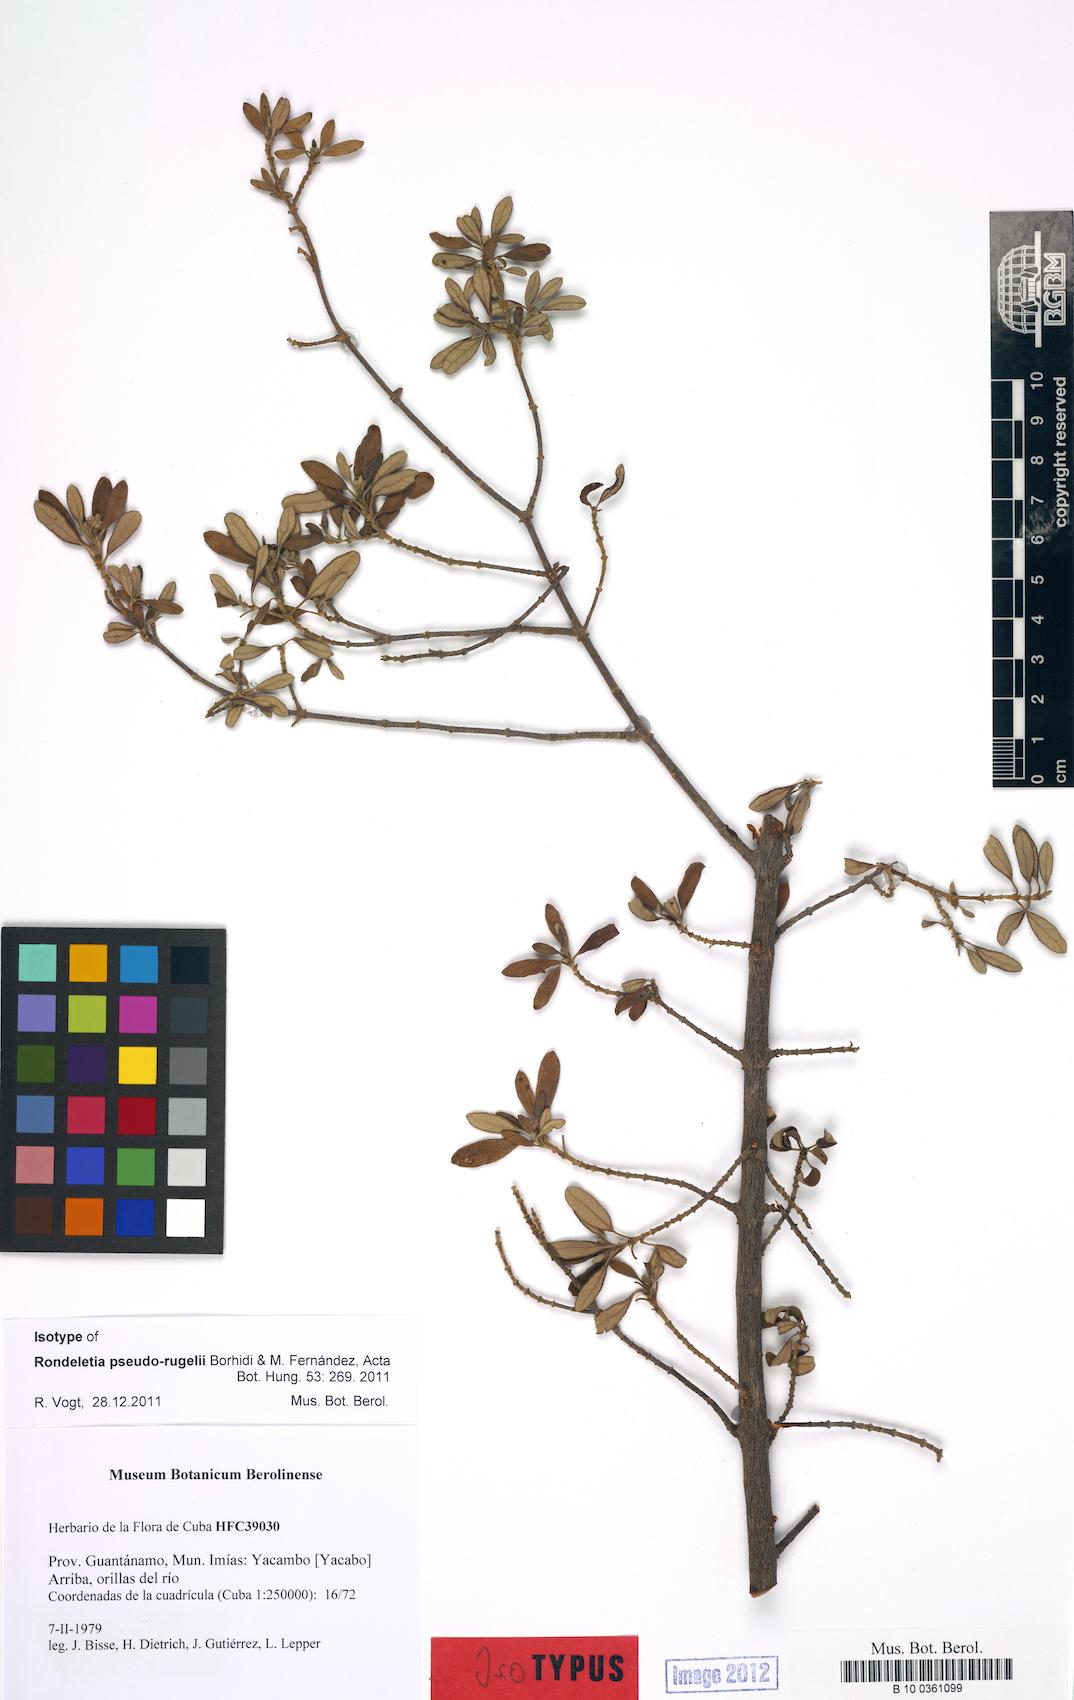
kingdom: Plantae
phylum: Tracheophyta
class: Magnoliopsida
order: Gentianales
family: Rubiaceae
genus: Rondeletia
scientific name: Rondeletia pseudorugelii
